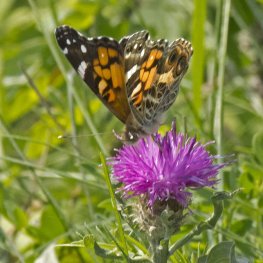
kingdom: Animalia
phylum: Arthropoda
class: Insecta
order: Lepidoptera
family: Nymphalidae
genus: Vanessa
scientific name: Vanessa virginiensis
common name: American Lady
